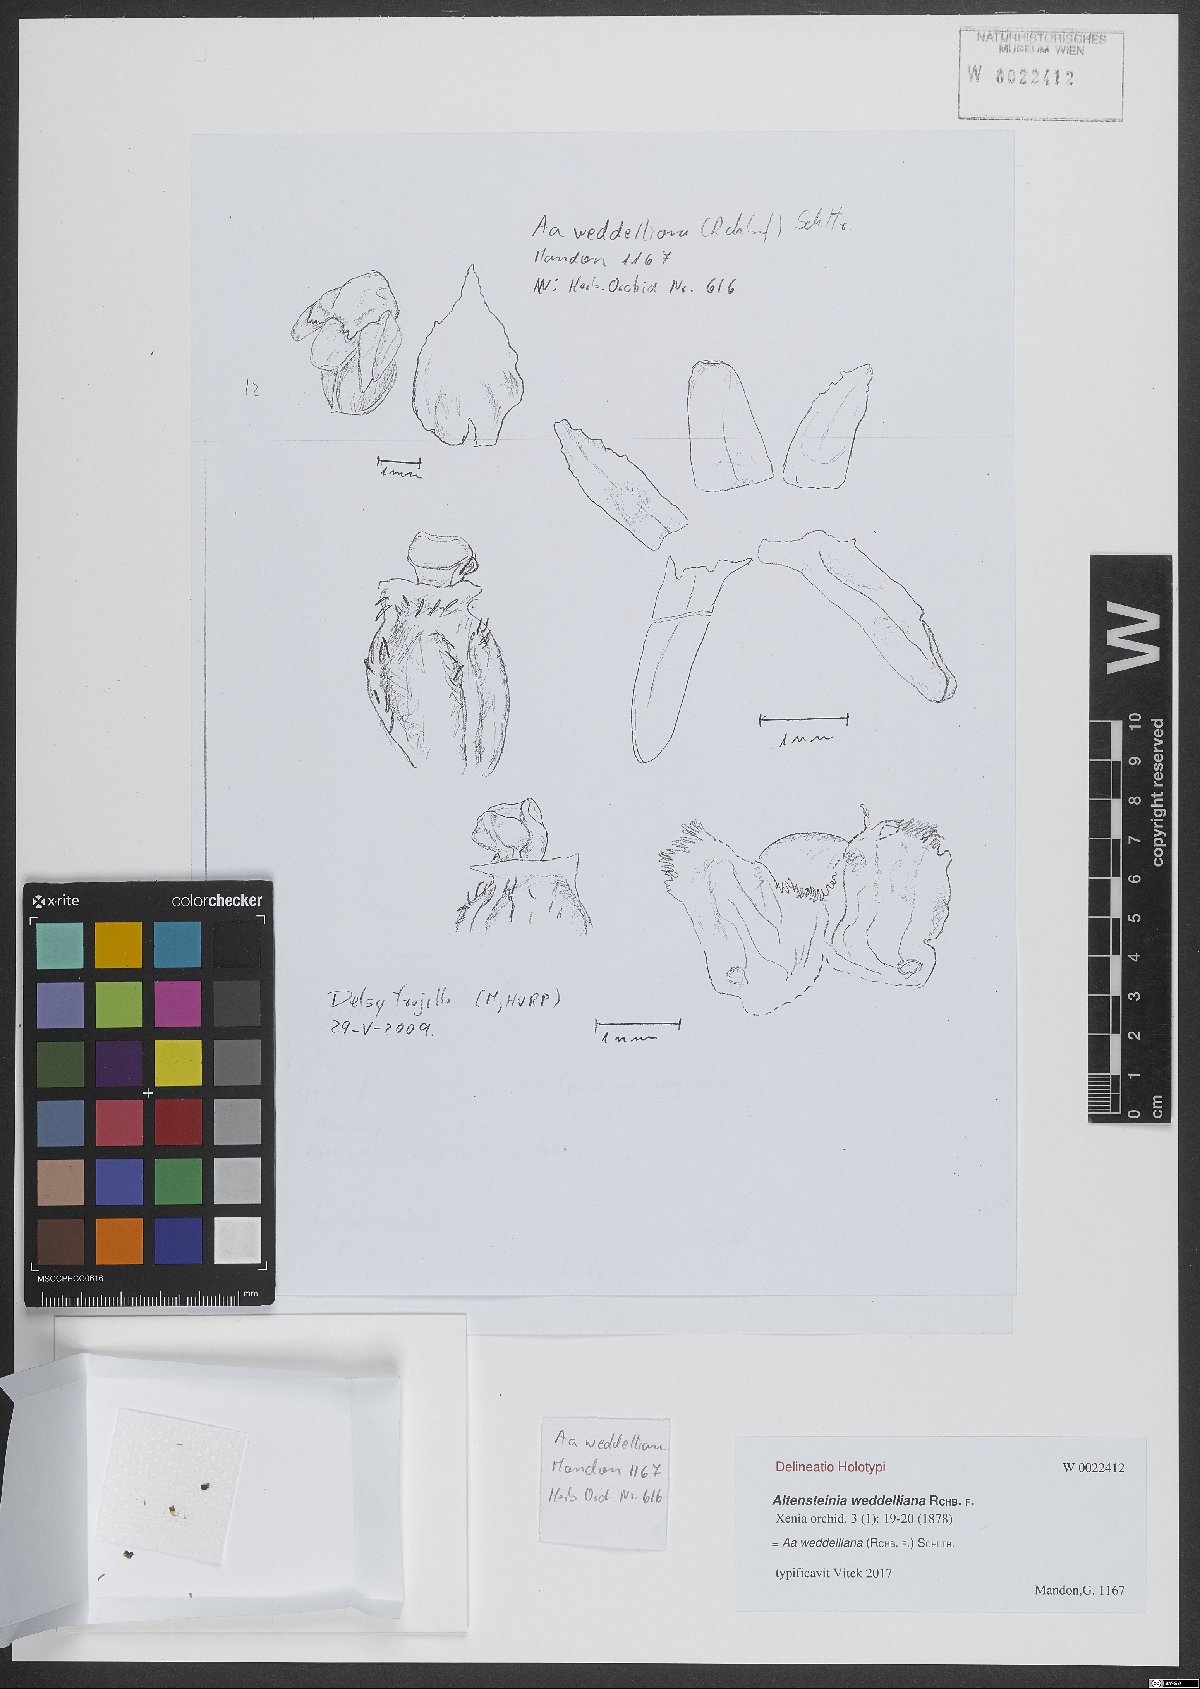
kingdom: Plantae
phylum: Tracheophyta
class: Liliopsida
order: Asparagales
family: Orchidaceae
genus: Aa
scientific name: Aa weddelliana
